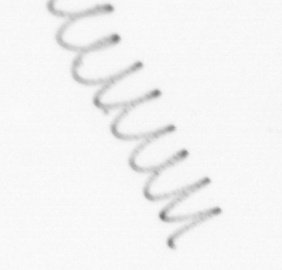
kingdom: Chromista
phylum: Ochrophyta
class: Bacillariophyceae
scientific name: Bacillariophyceae
